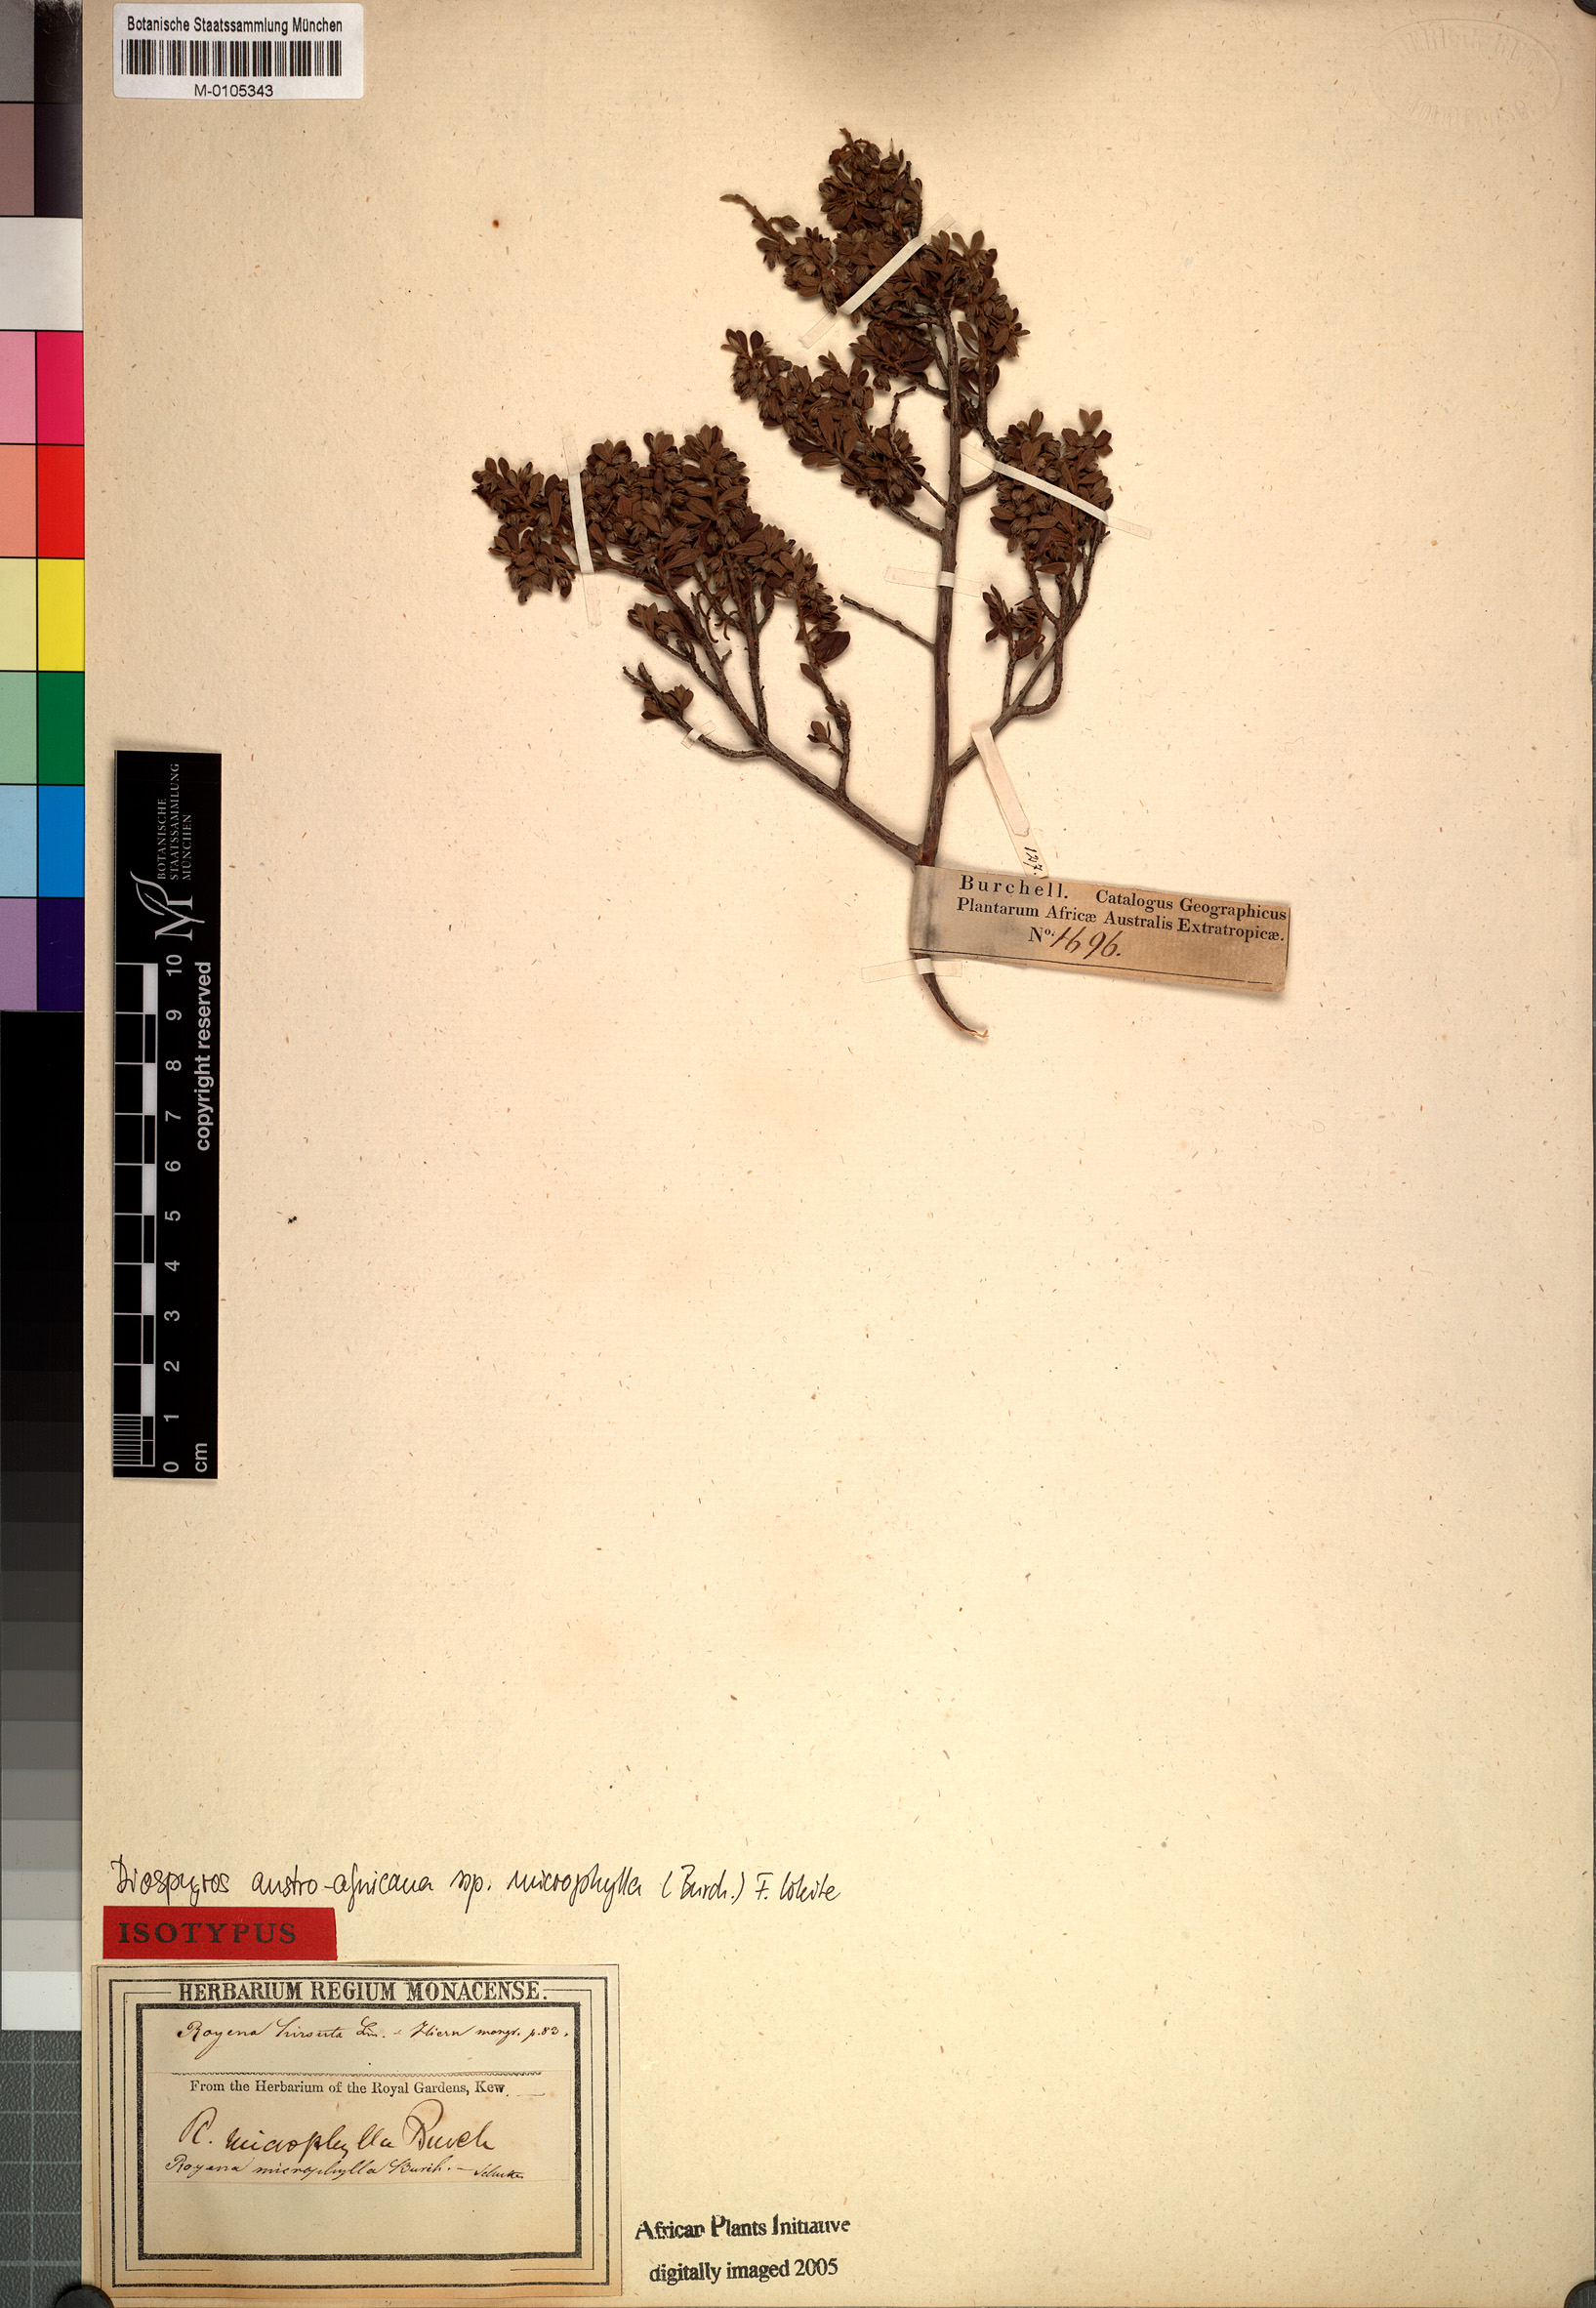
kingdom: Plantae
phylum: Tracheophyta
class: Magnoliopsida
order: Ericales
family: Ebenaceae
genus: Diospyros
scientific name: Diospyros pubescens
